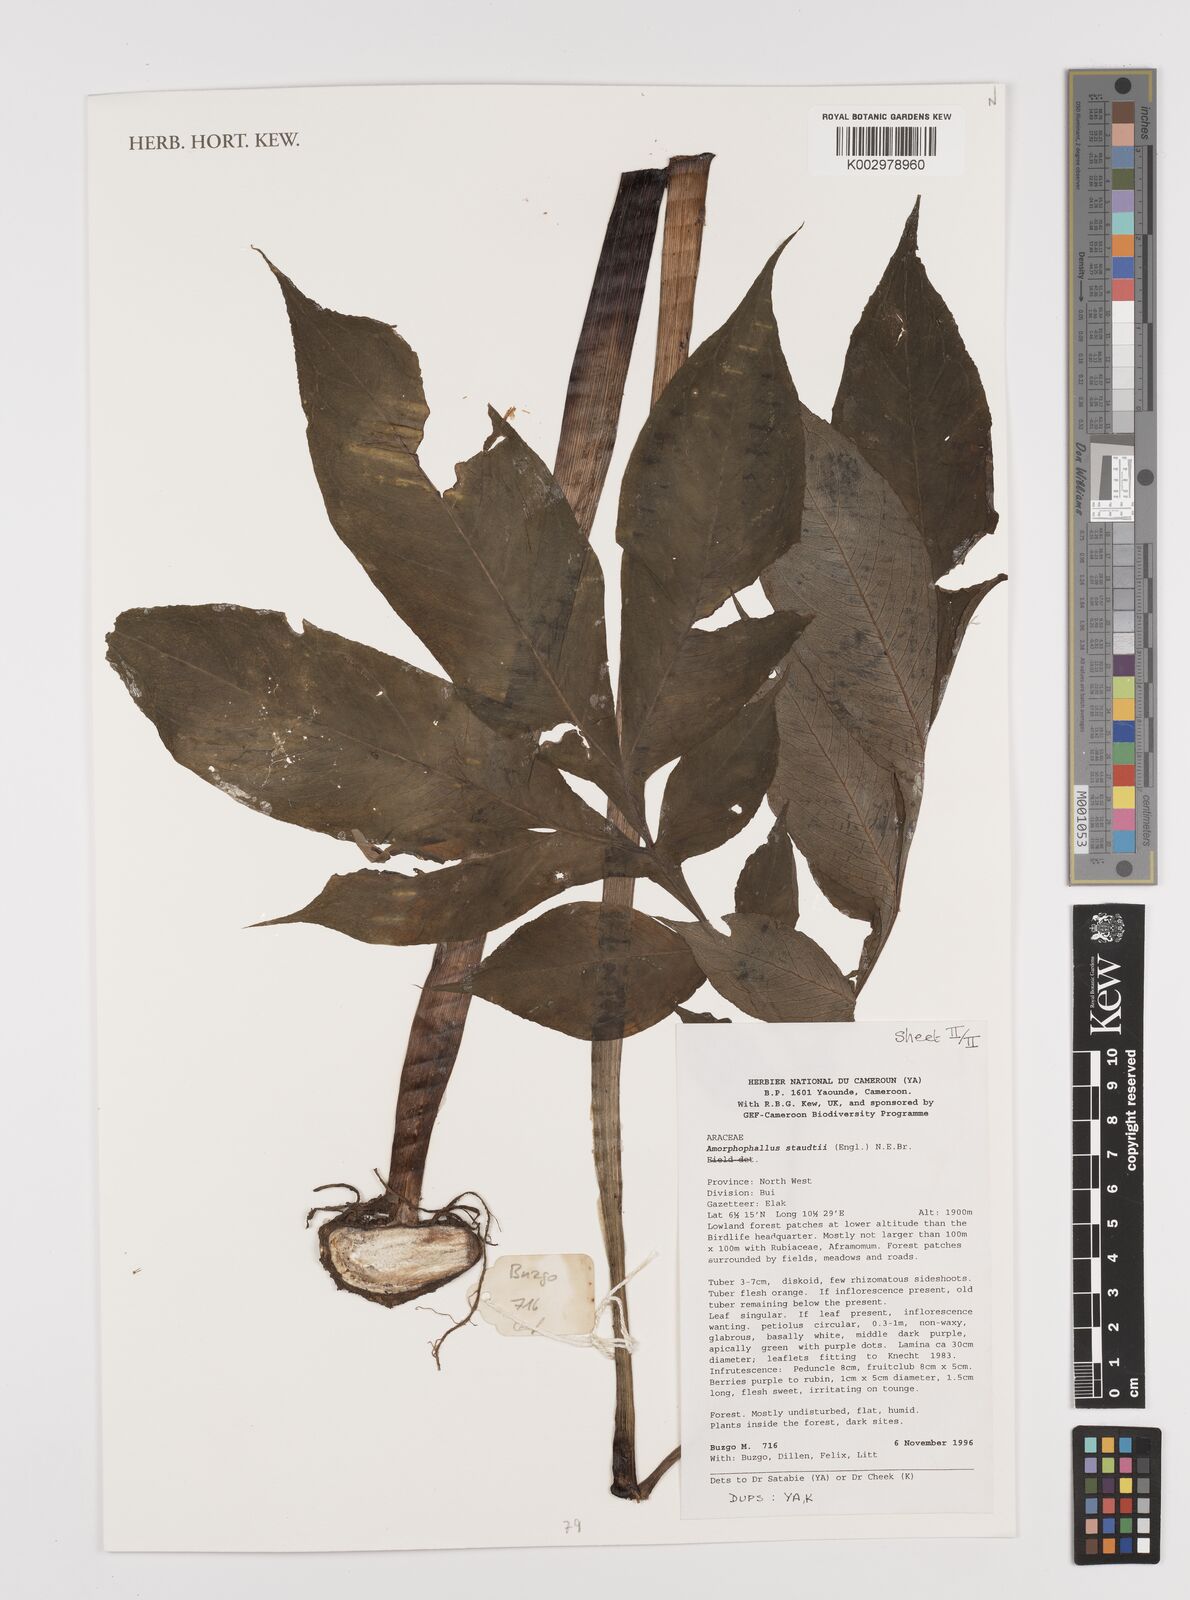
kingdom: Plantae
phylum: Tracheophyta
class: Liliopsida
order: Alismatales
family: Araceae
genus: Amorphophallus
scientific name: Amorphophallus staudtii
